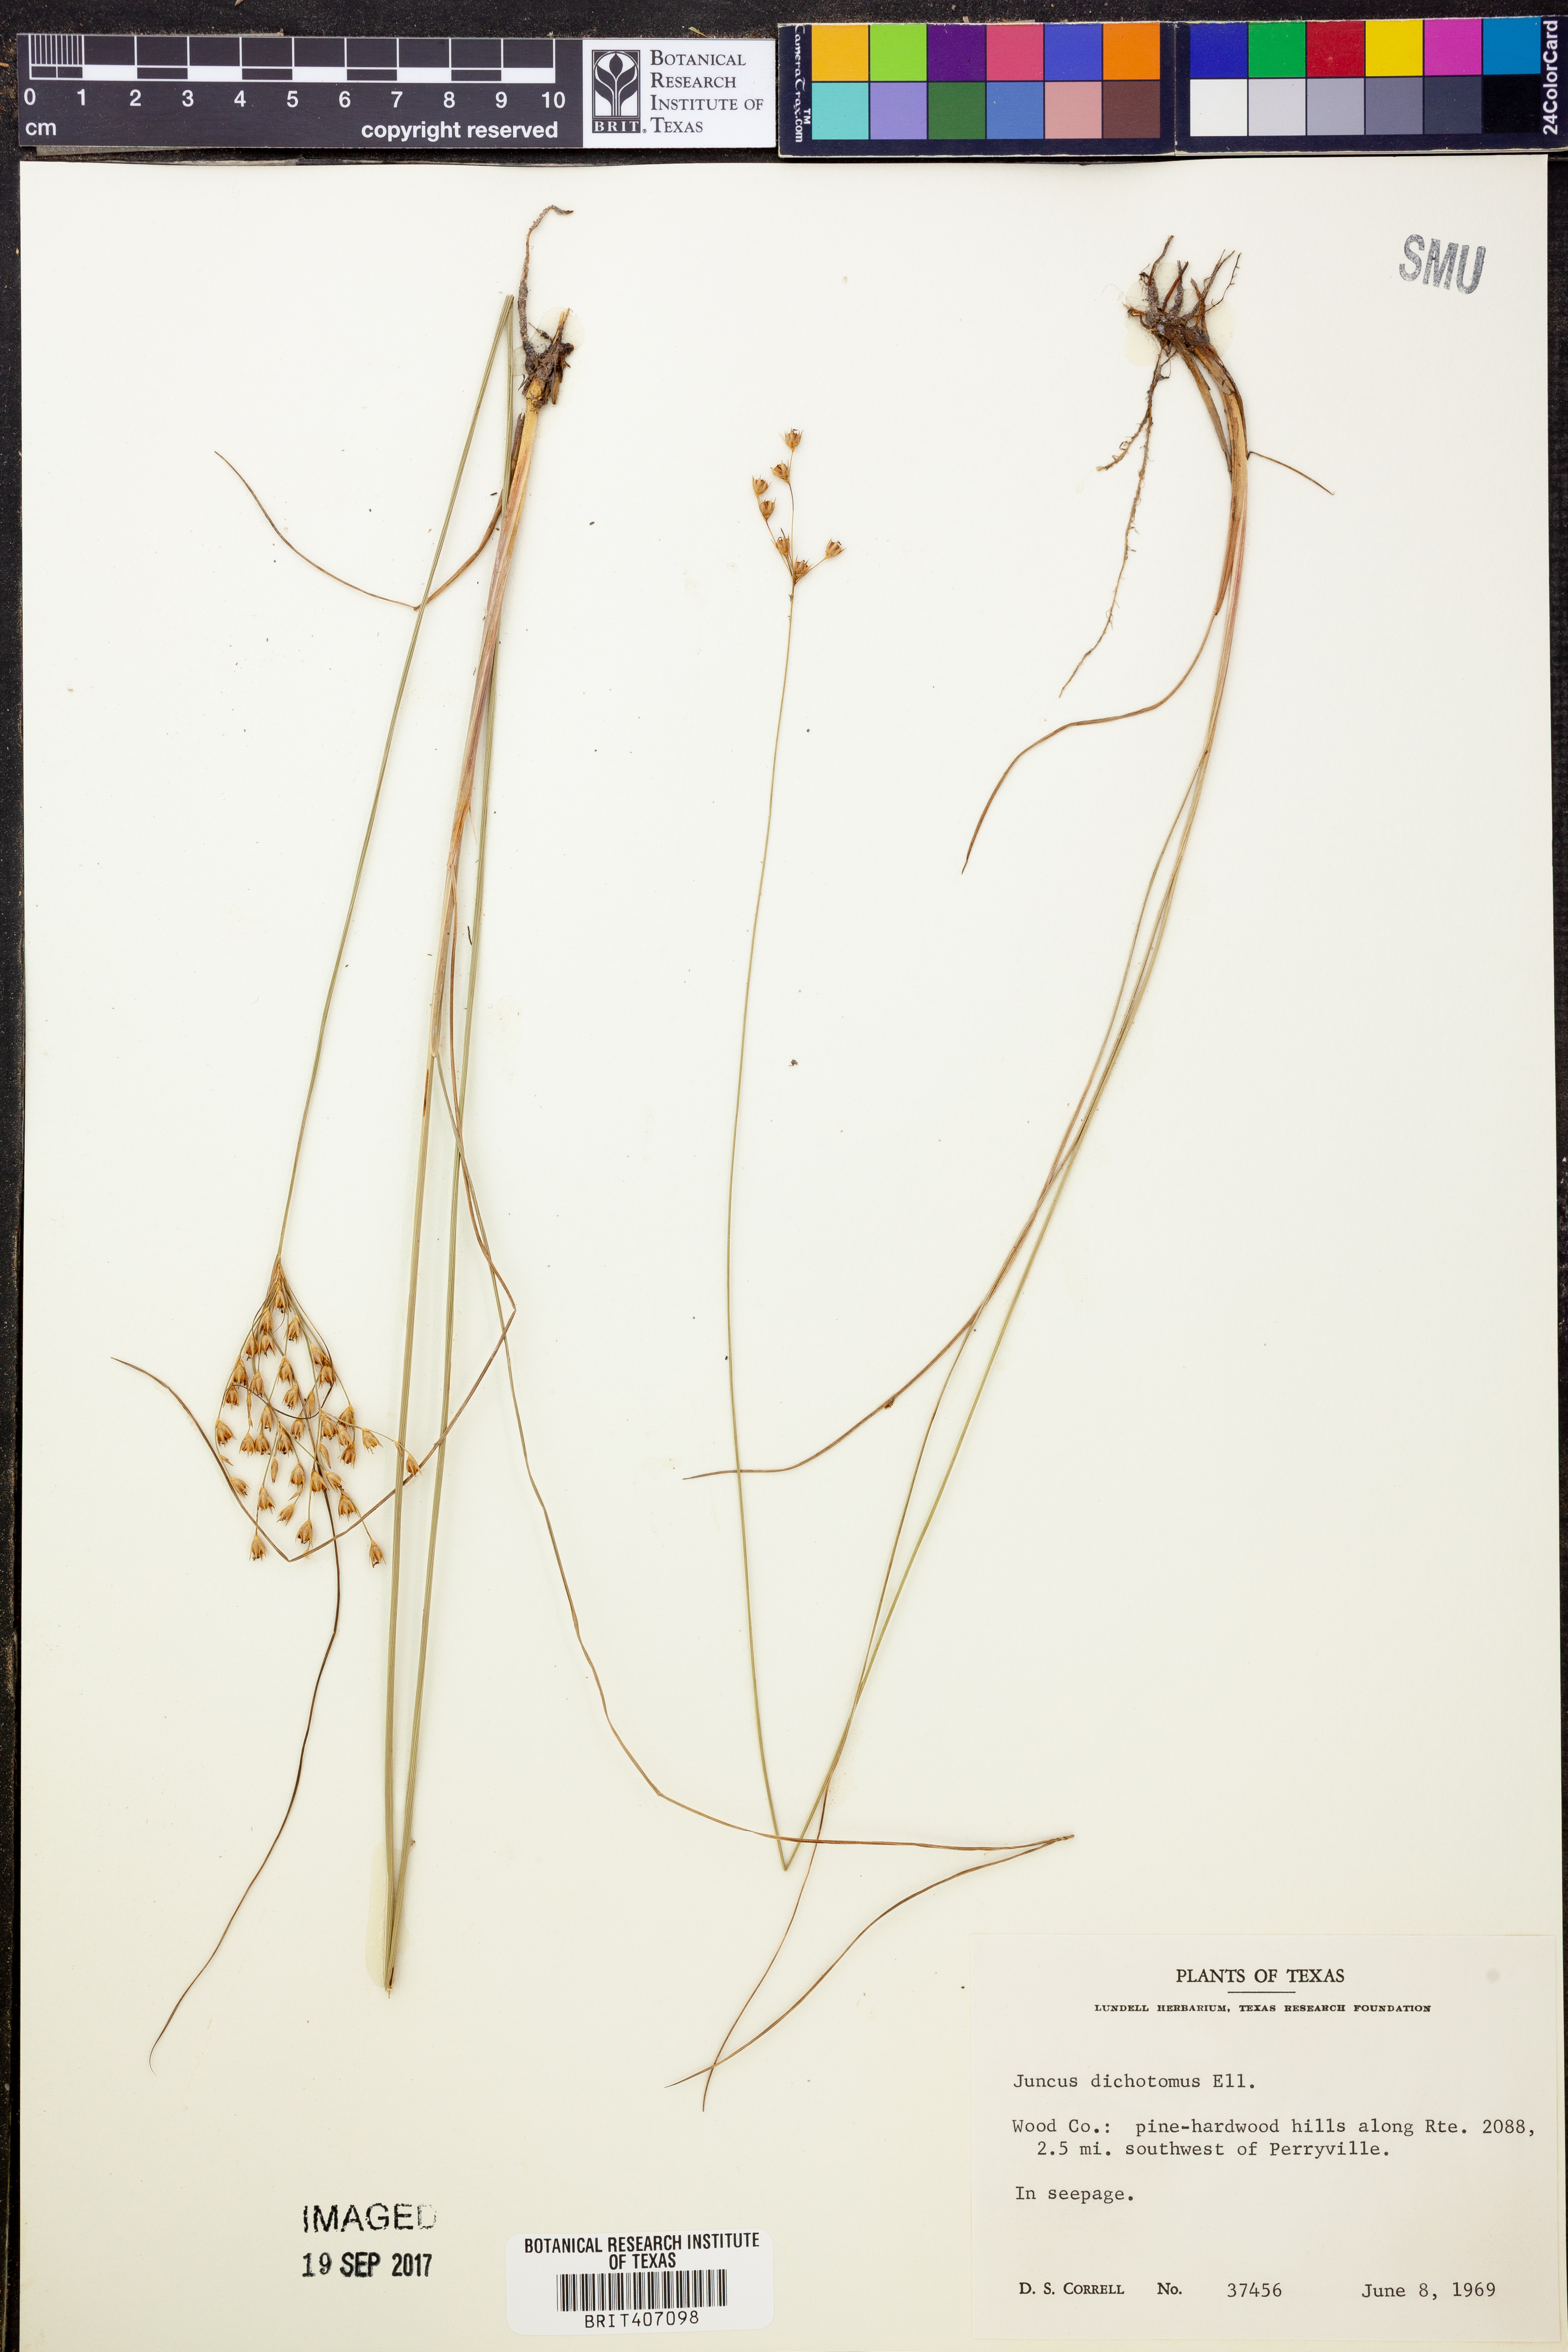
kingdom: Plantae
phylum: Tracheophyta
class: Liliopsida
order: Poales
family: Juncaceae
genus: Juncus
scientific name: Juncus dichotomus
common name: Forked rush
